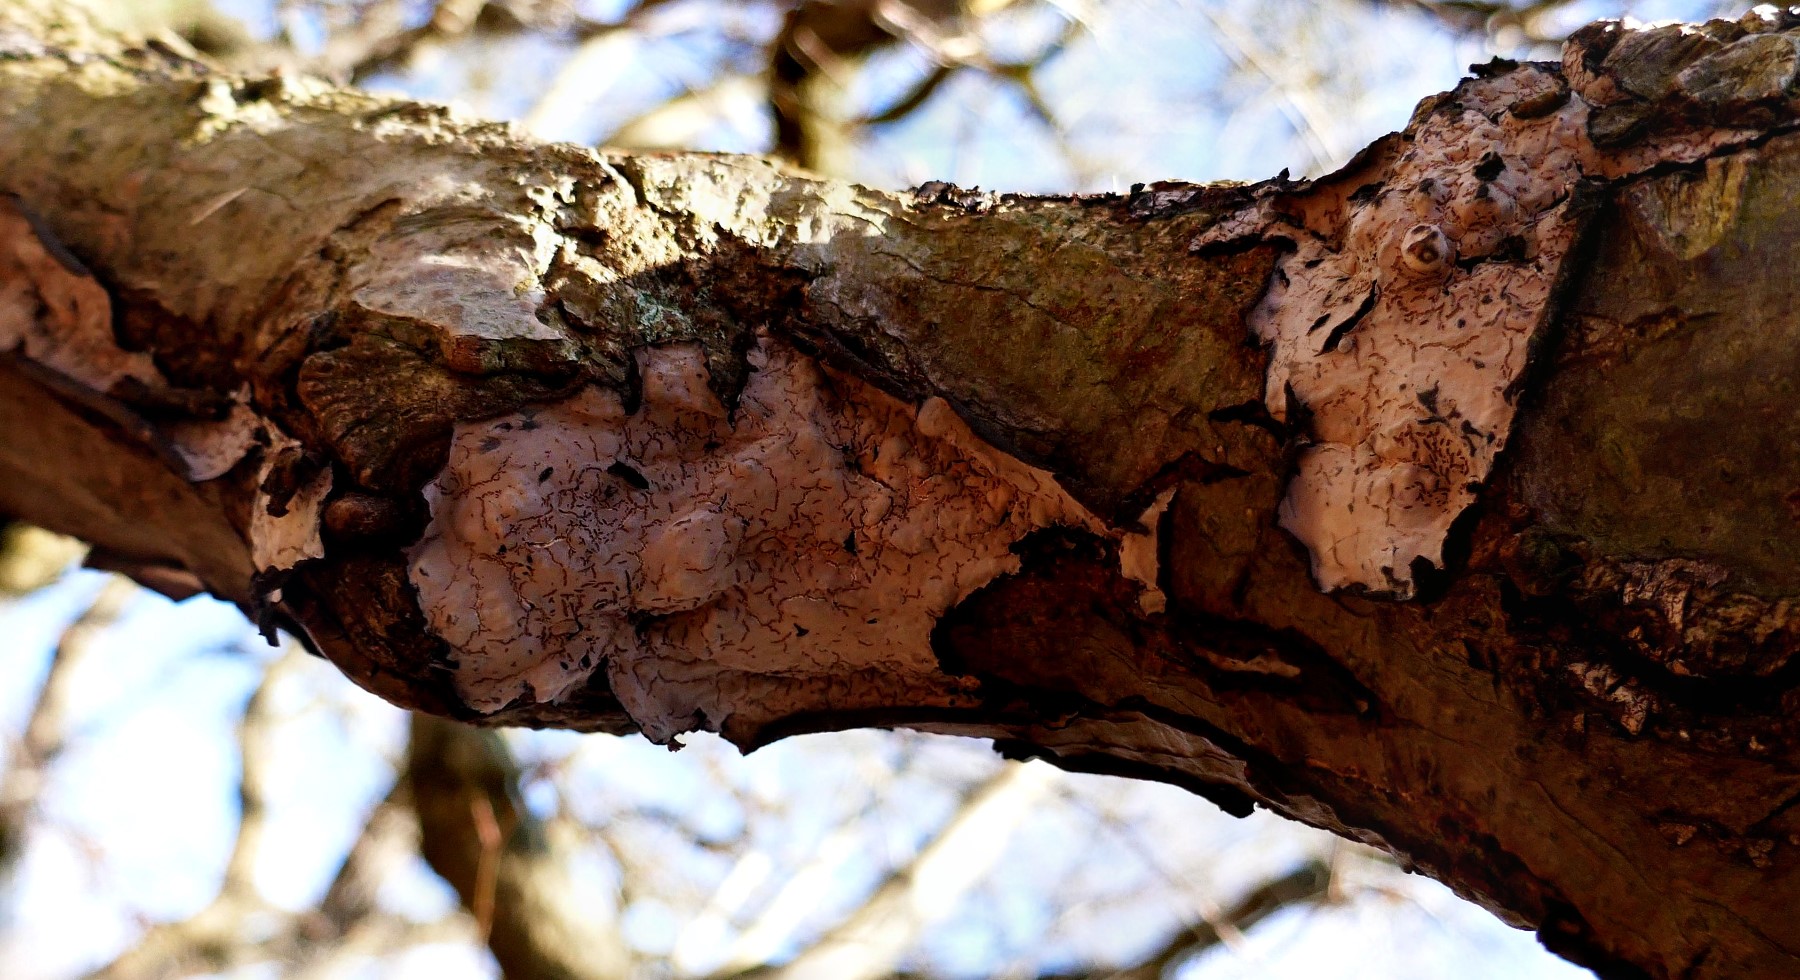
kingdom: Fungi
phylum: Basidiomycota
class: Agaricomycetes
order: Russulales
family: Peniophoraceae
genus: Peniophora
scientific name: Peniophora quercina
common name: ege-voksskind
